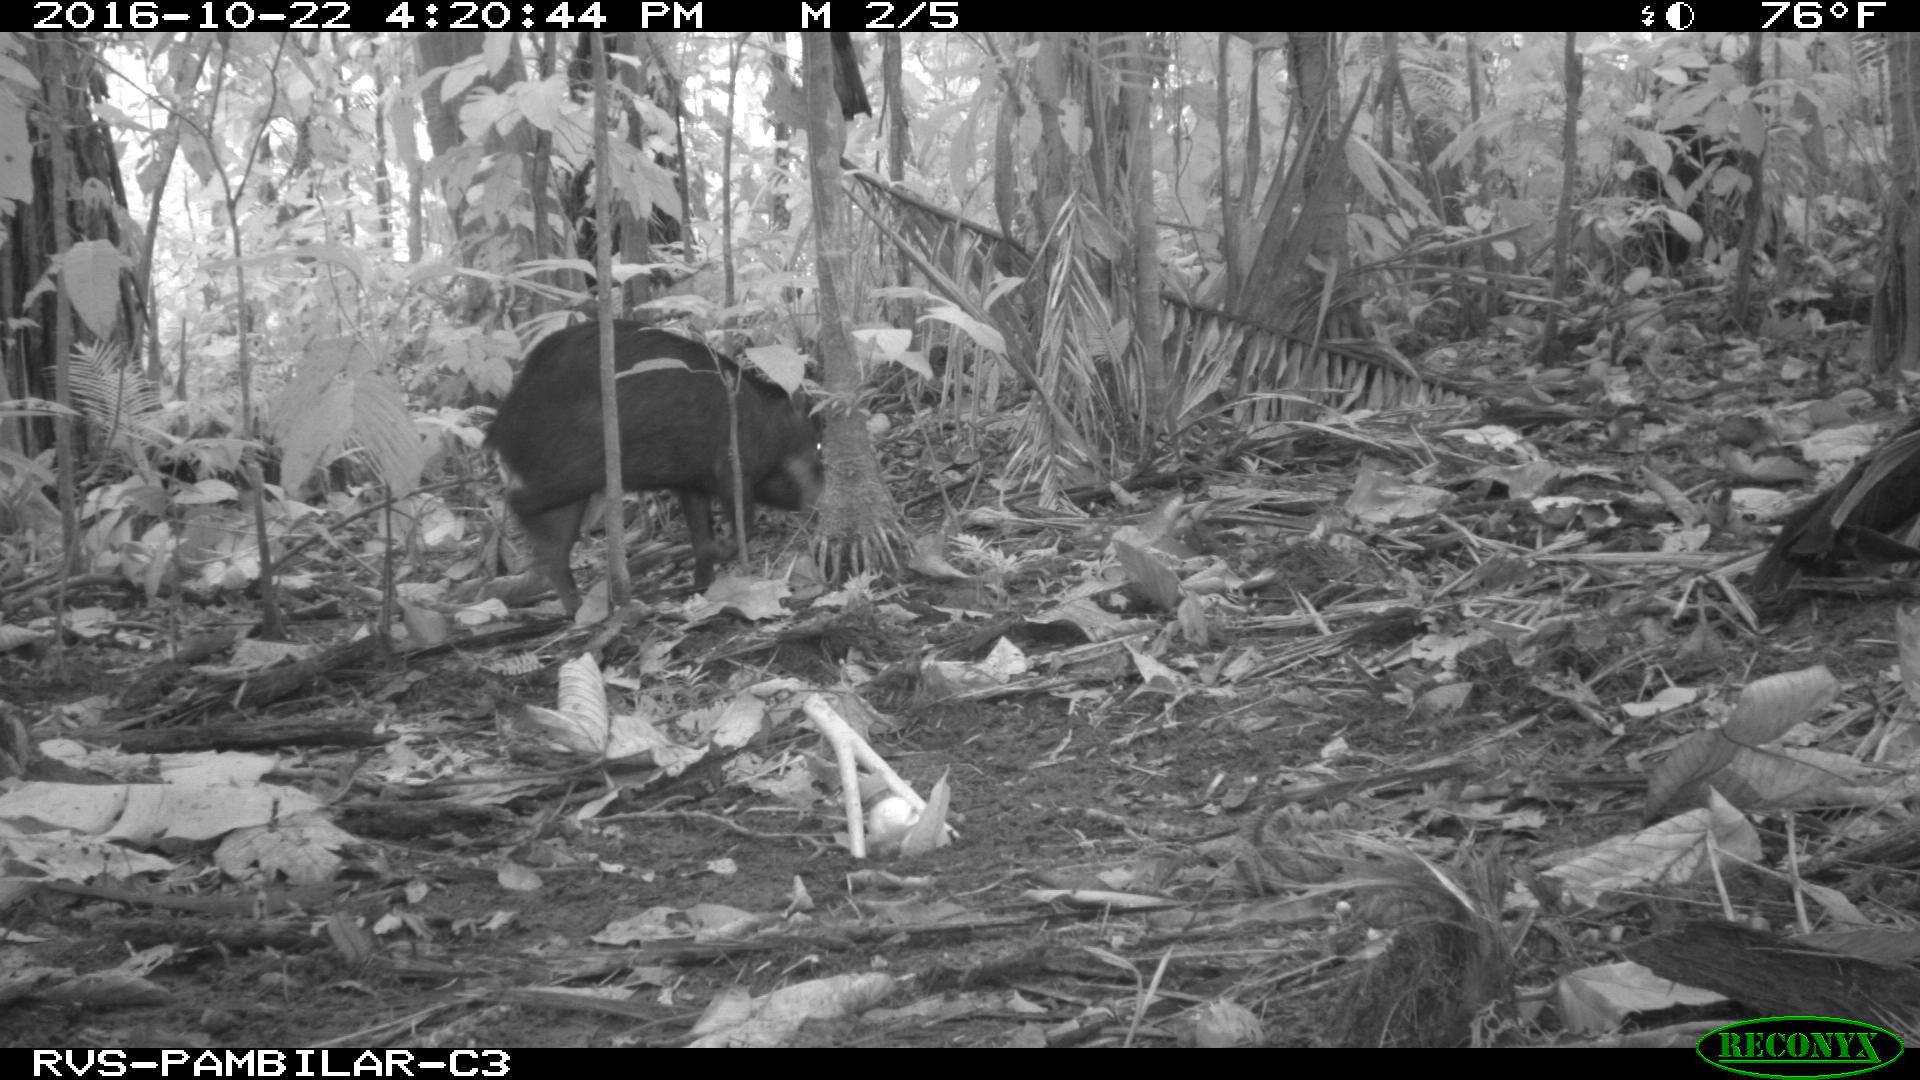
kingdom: Animalia
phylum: Chordata
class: Mammalia
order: Artiodactyla
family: Tayassuidae
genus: Tayassu
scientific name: Tayassu pecari
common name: White-lipped peccary
